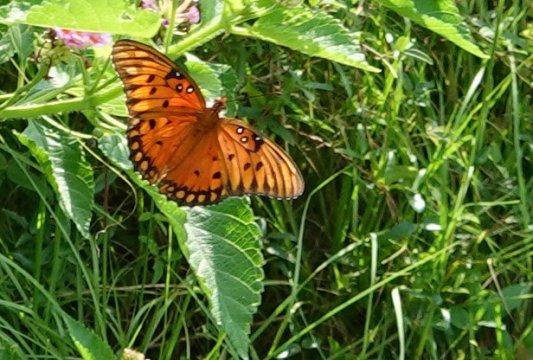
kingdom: Animalia
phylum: Arthropoda
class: Insecta
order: Lepidoptera
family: Nymphalidae
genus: Dione
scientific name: Dione vanillae
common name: Gulf Fritillary
